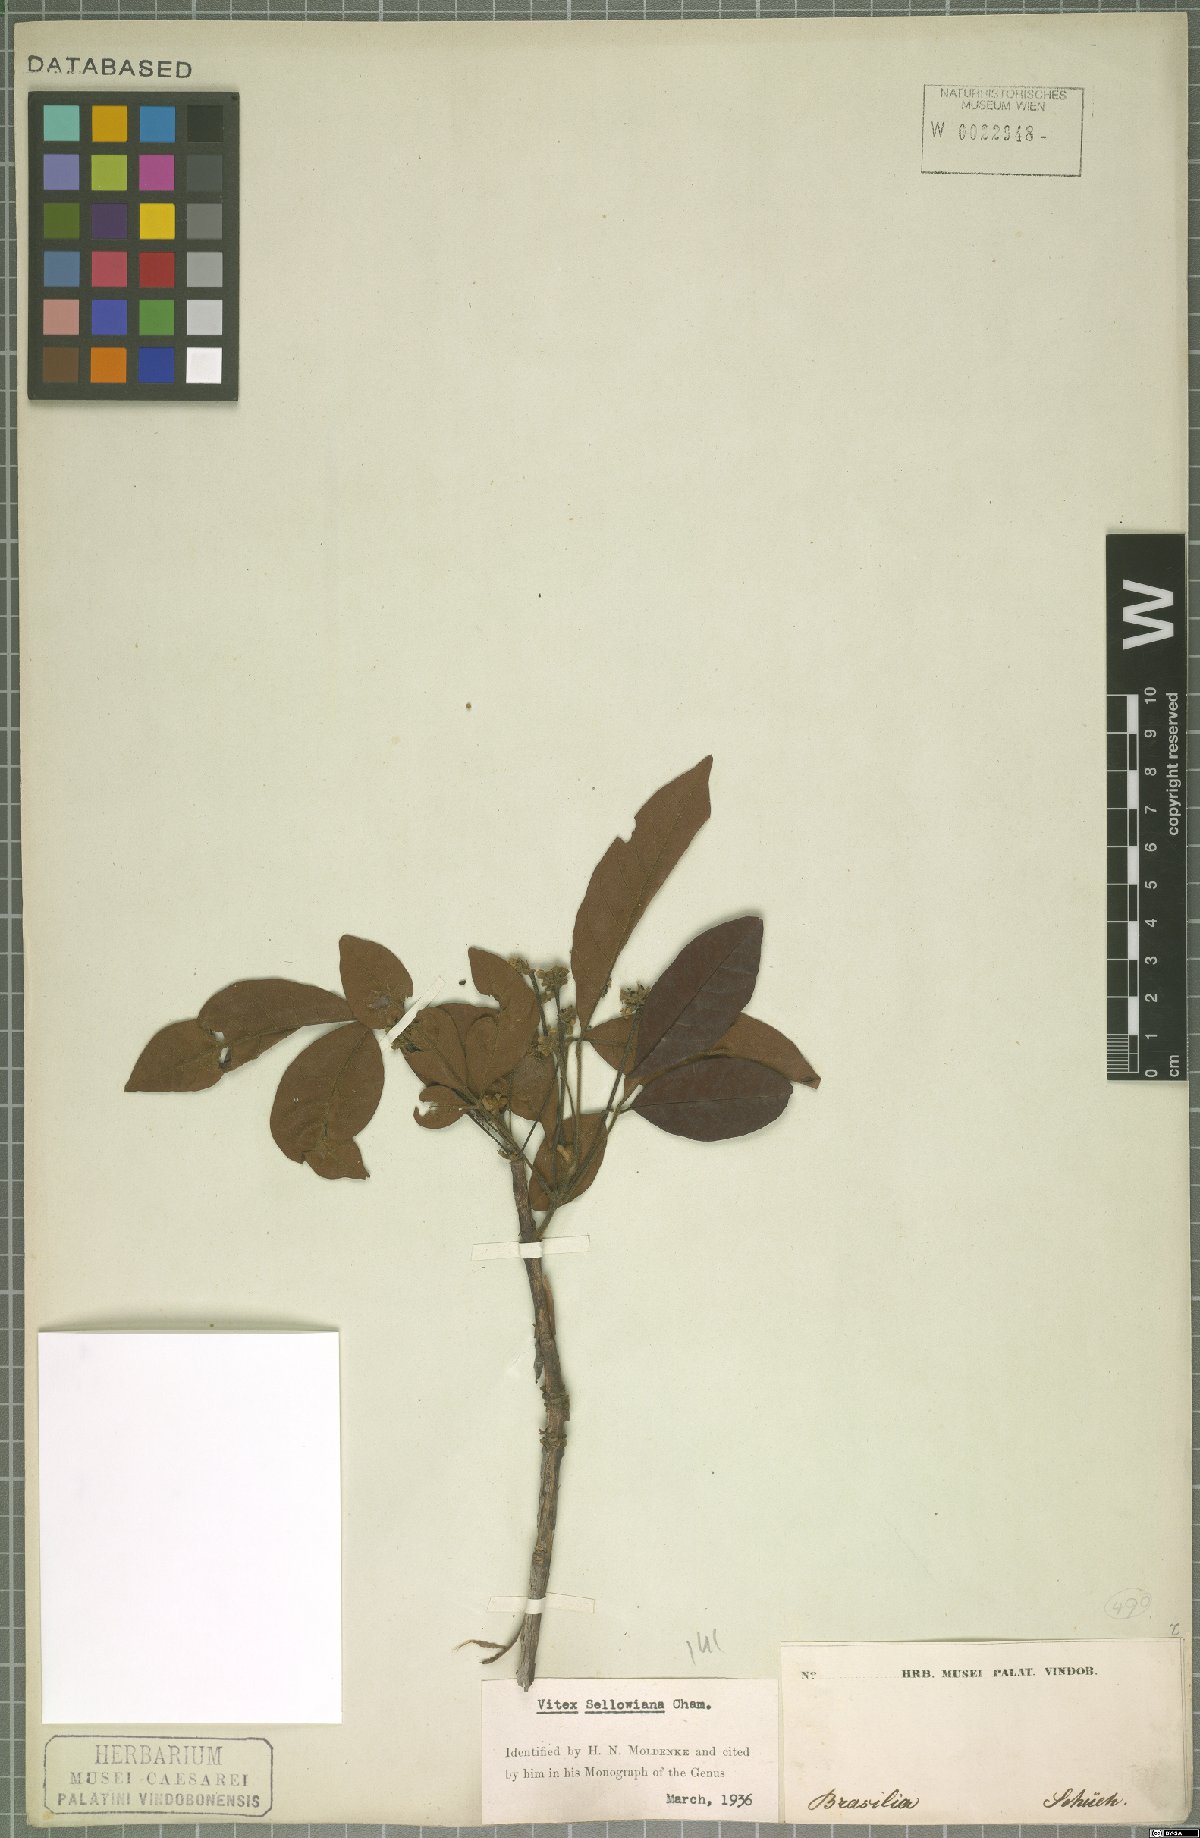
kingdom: Plantae
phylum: Tracheophyta
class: Magnoliopsida
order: Lamiales
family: Lamiaceae
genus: Vitex
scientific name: Vitex sellowiana
